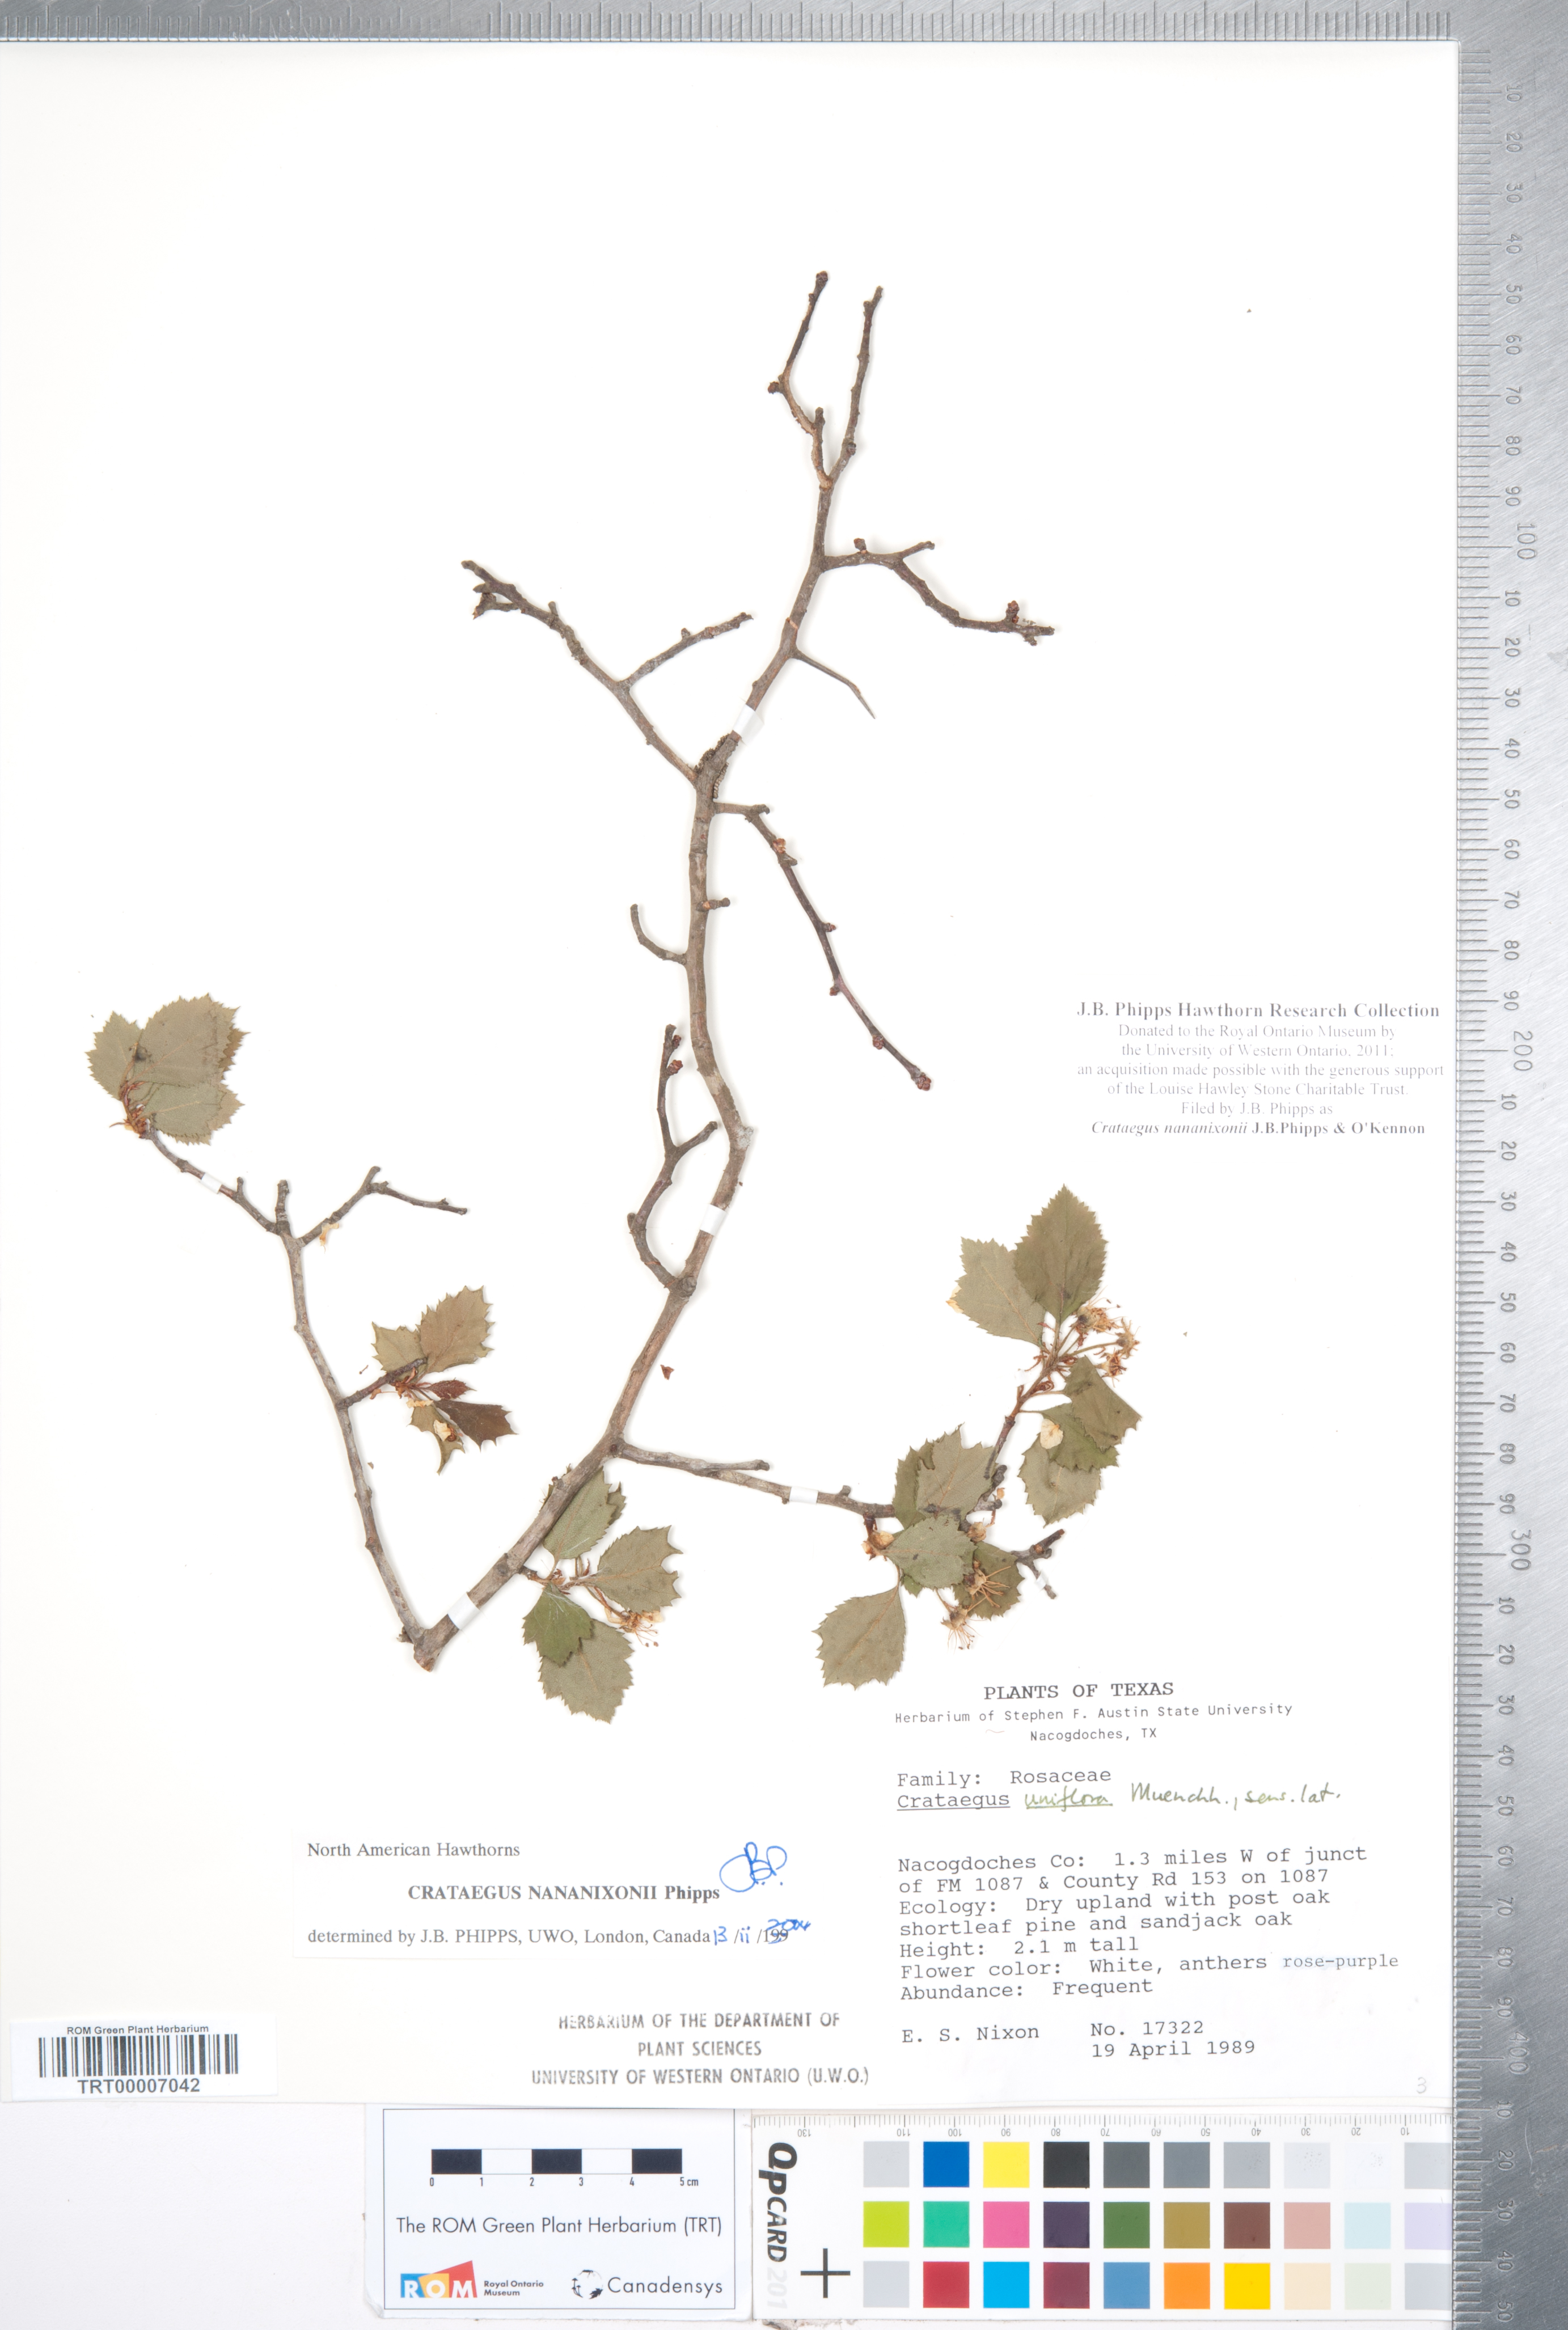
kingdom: Plantae
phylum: Tracheophyta
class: Magnoliopsida
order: Rosales
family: Rosaceae
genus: Crataegus
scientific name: Crataegus nananixonii
